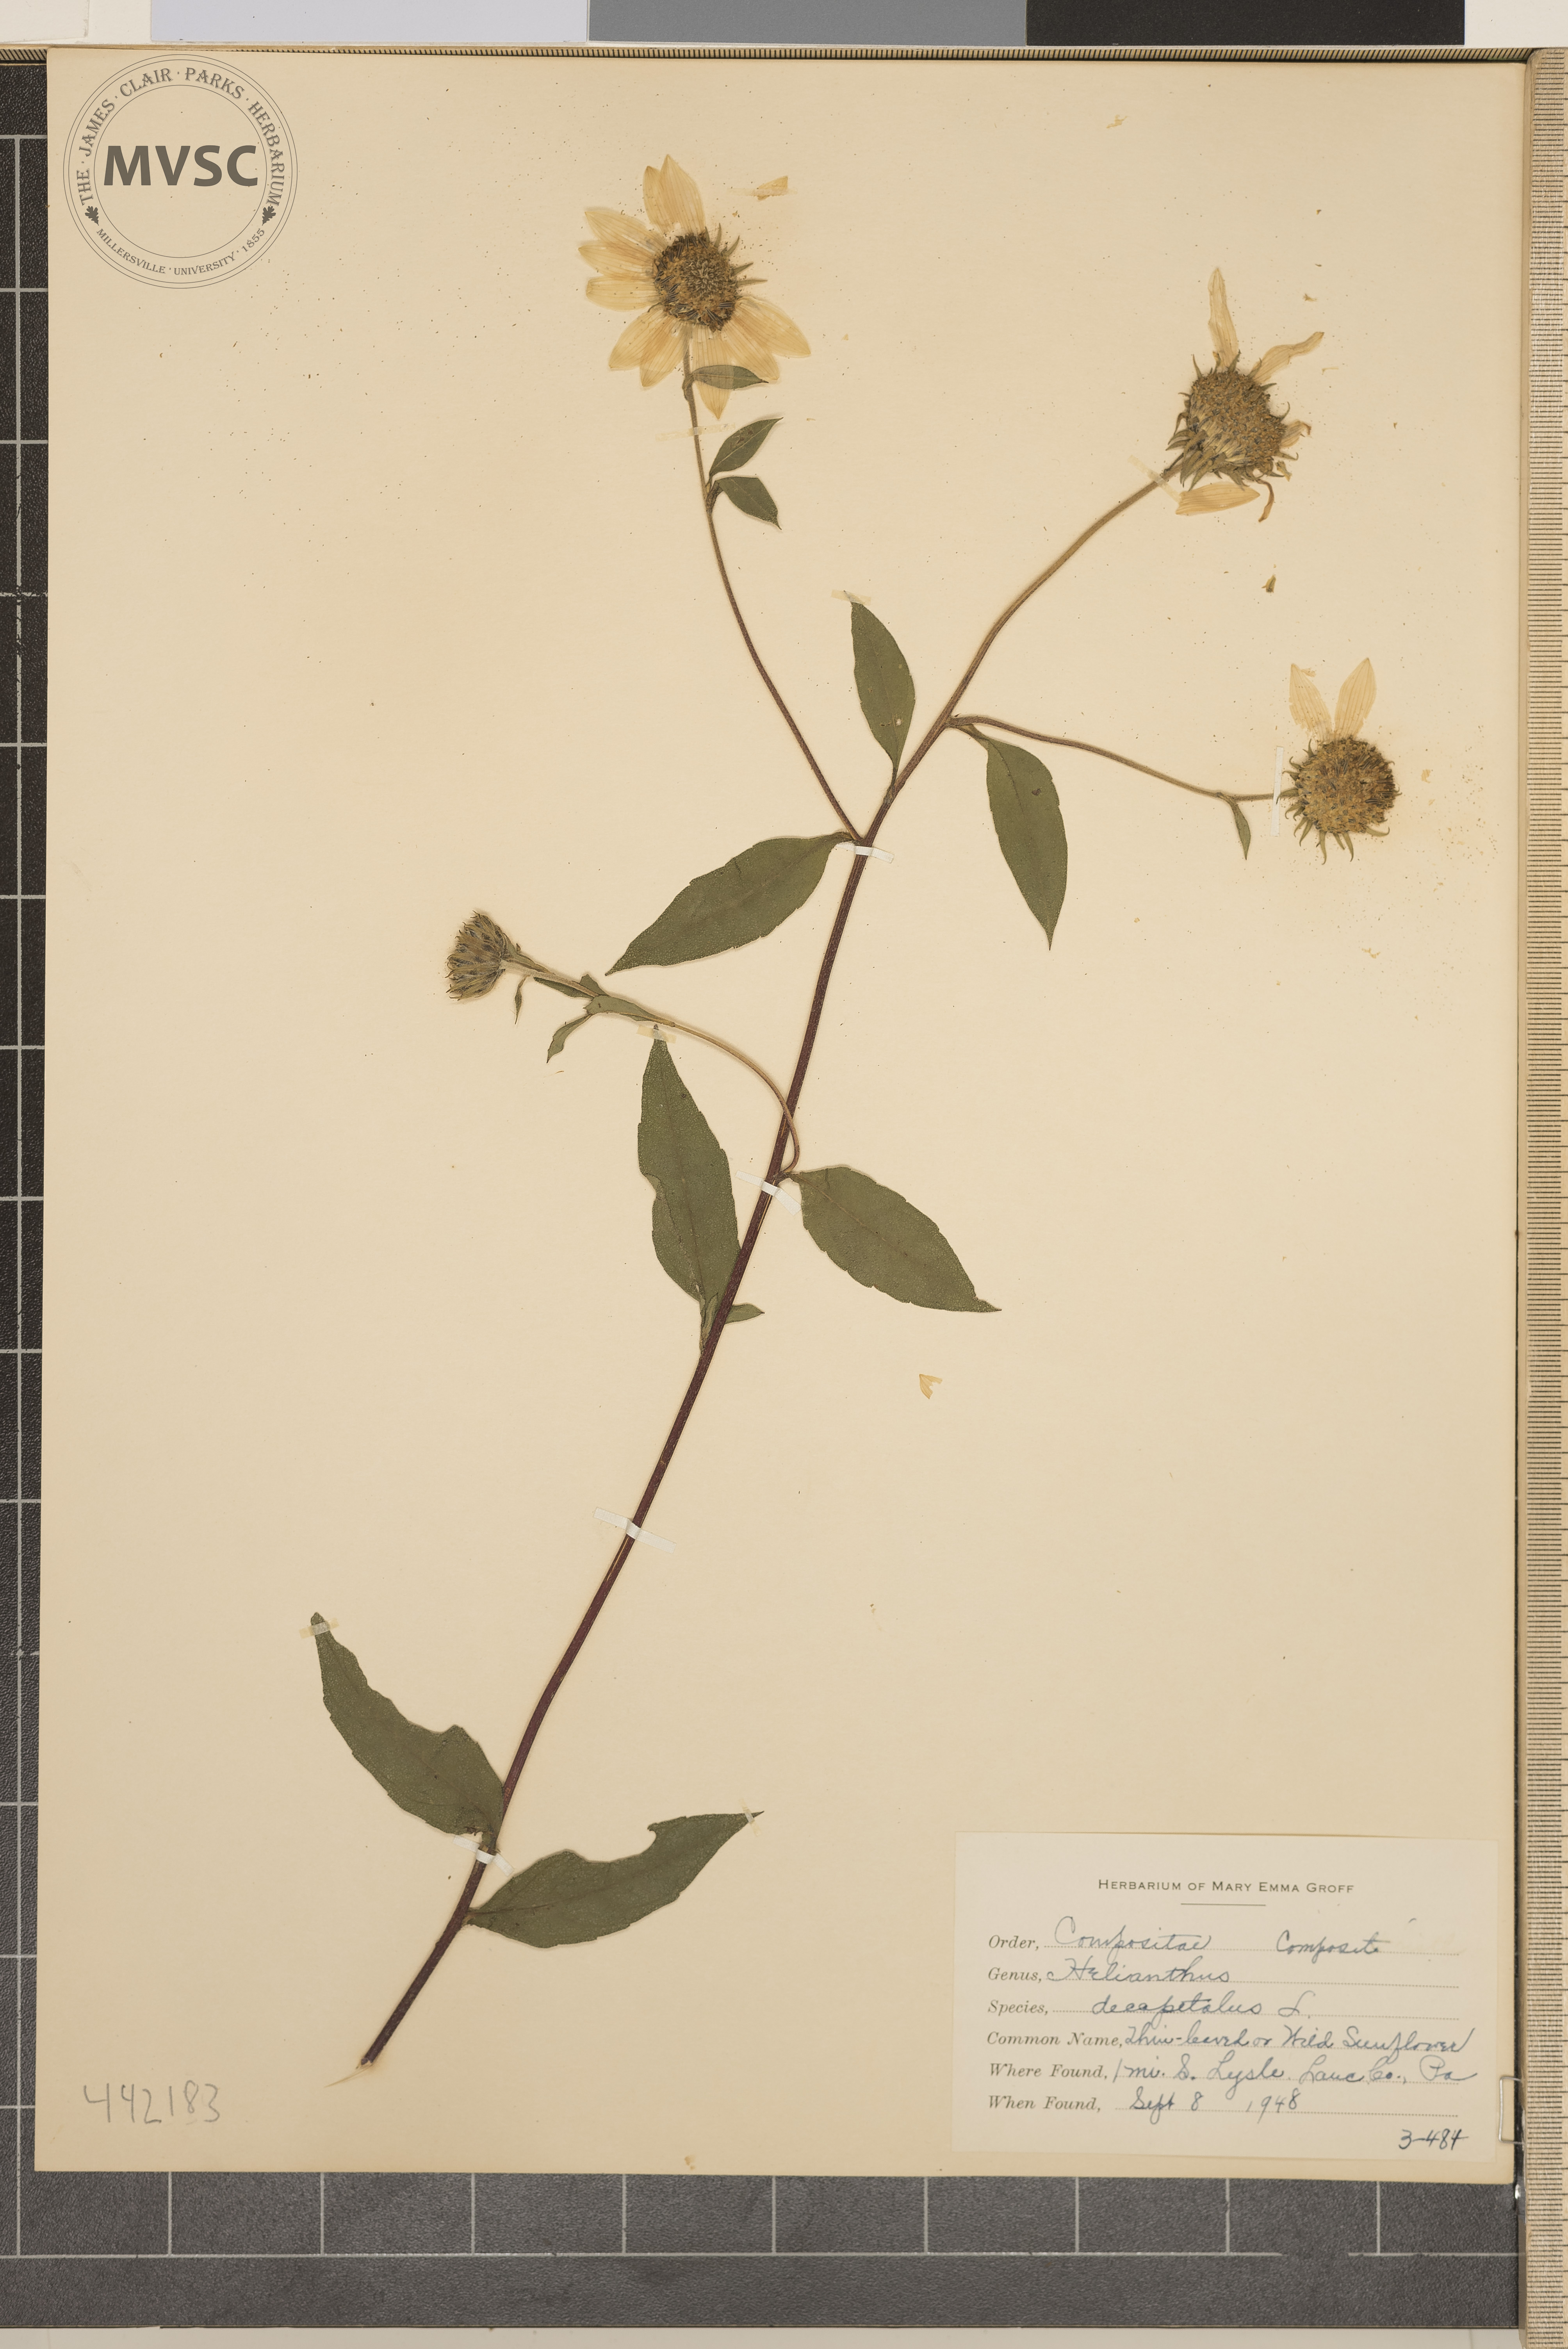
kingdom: Plantae
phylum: Tracheophyta
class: Magnoliopsida
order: Asterales
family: Asteraceae
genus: Helianthus
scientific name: Helianthus decapetalus
